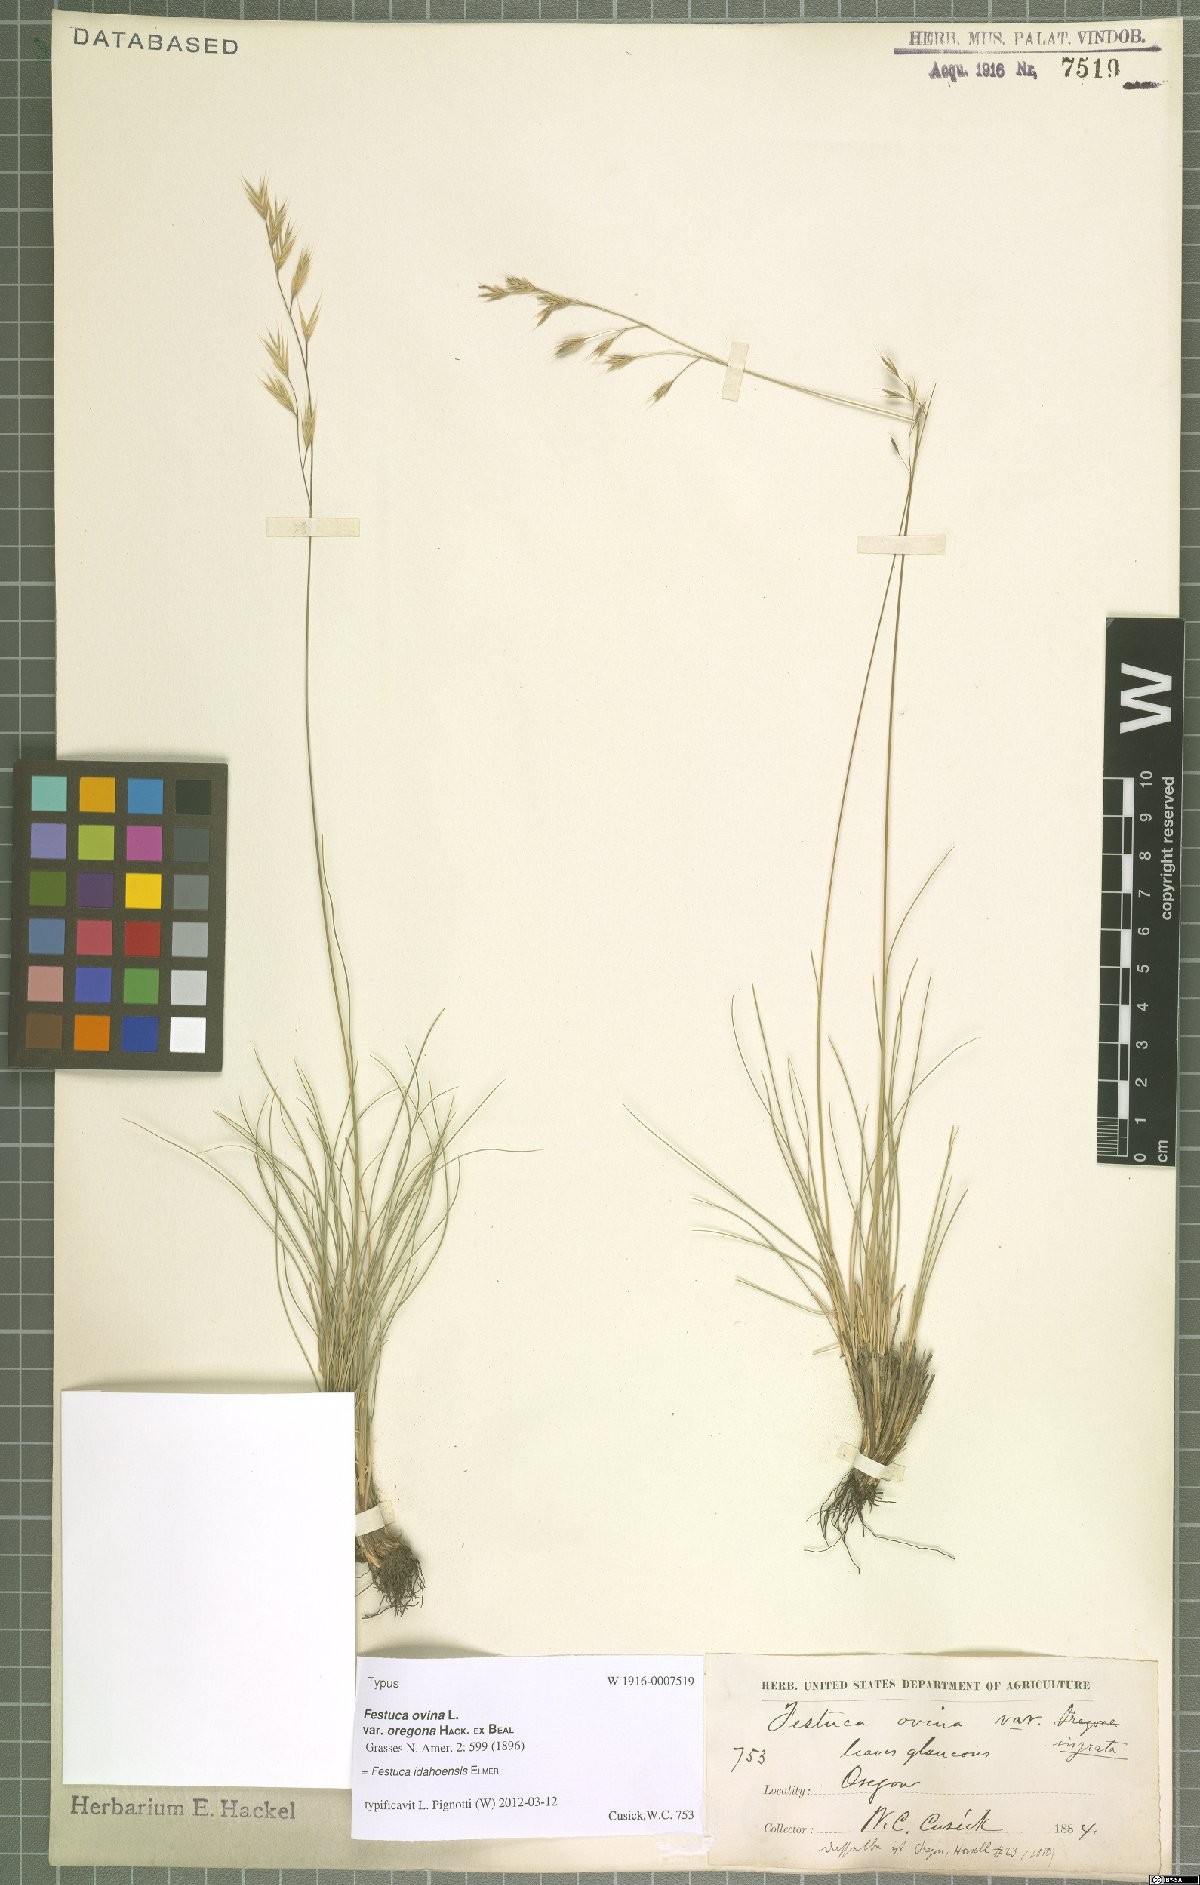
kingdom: Plantae
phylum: Tracheophyta
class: Liliopsida
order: Poales
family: Poaceae
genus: Festuca
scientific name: Festuca idahoensis
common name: Idaho fescue
